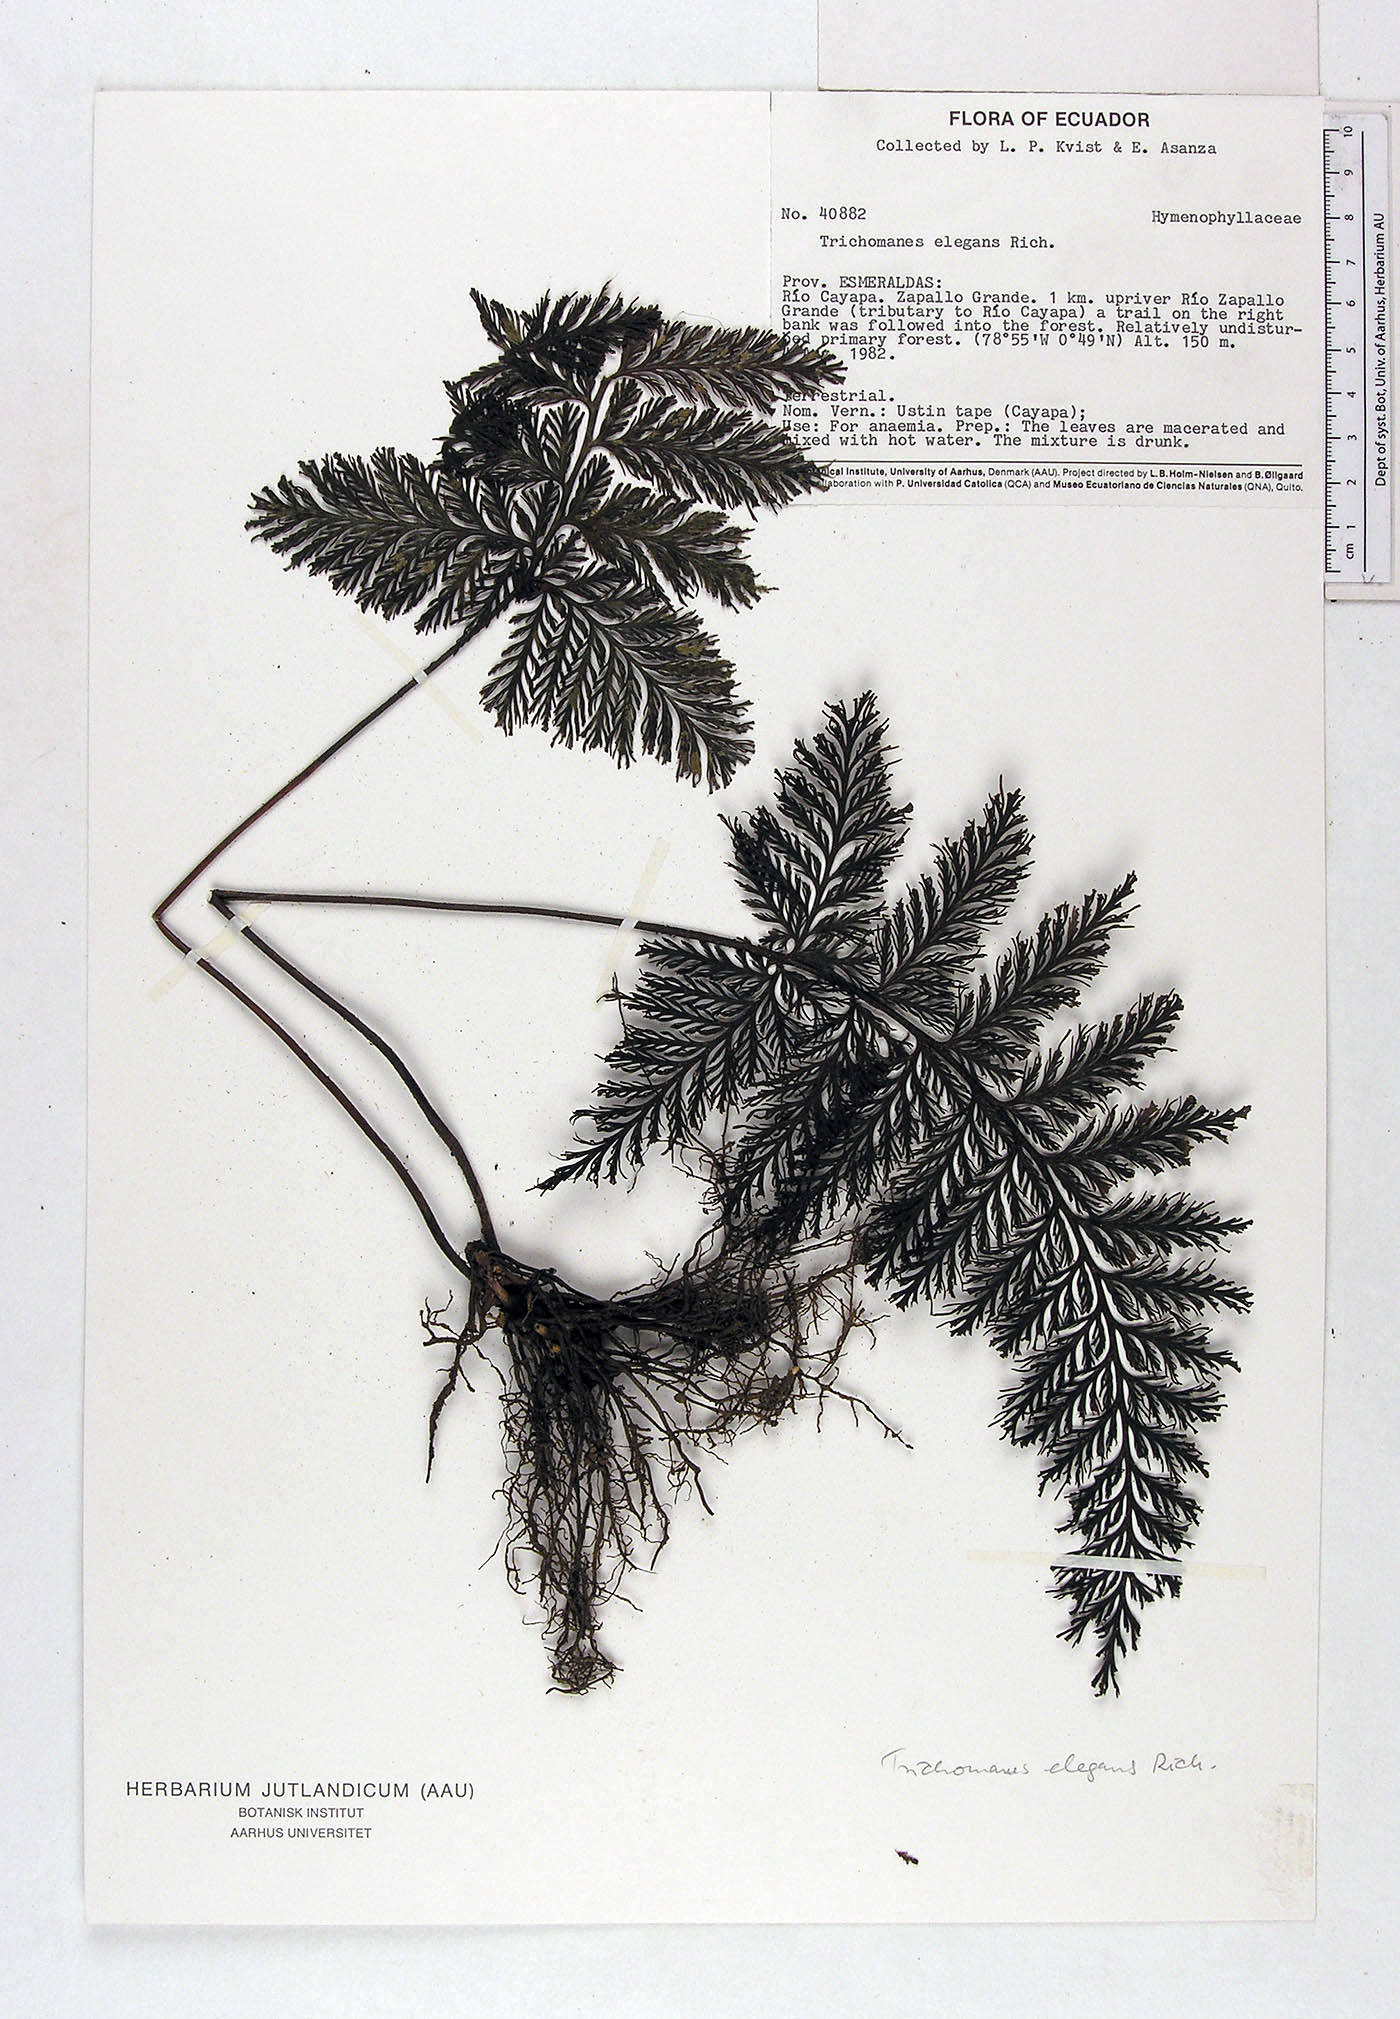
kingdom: Plantae
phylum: Tracheophyta
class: Polypodiopsida
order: Hymenophyllales
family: Hymenophyllaceae
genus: Trichomanes
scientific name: Trichomanes elegans
